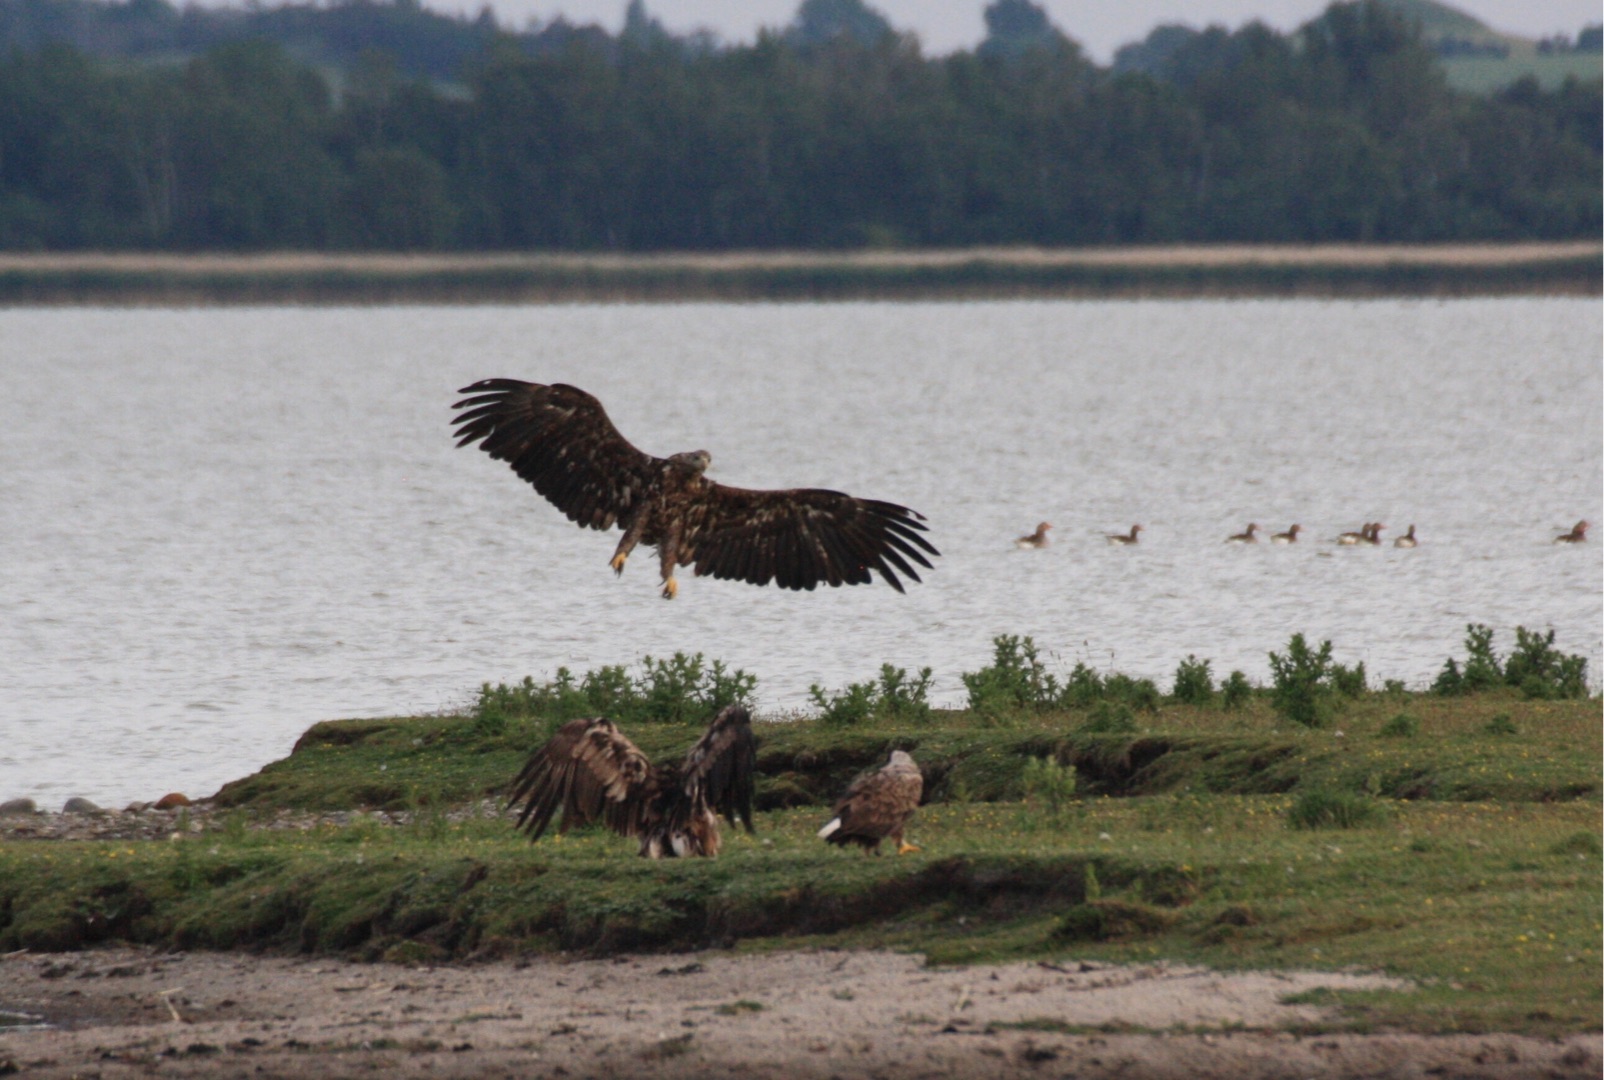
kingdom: Animalia
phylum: Chordata
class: Aves
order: Accipitriformes
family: Accipitridae
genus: Haliaeetus
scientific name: Haliaeetus albicilla
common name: Havørn
